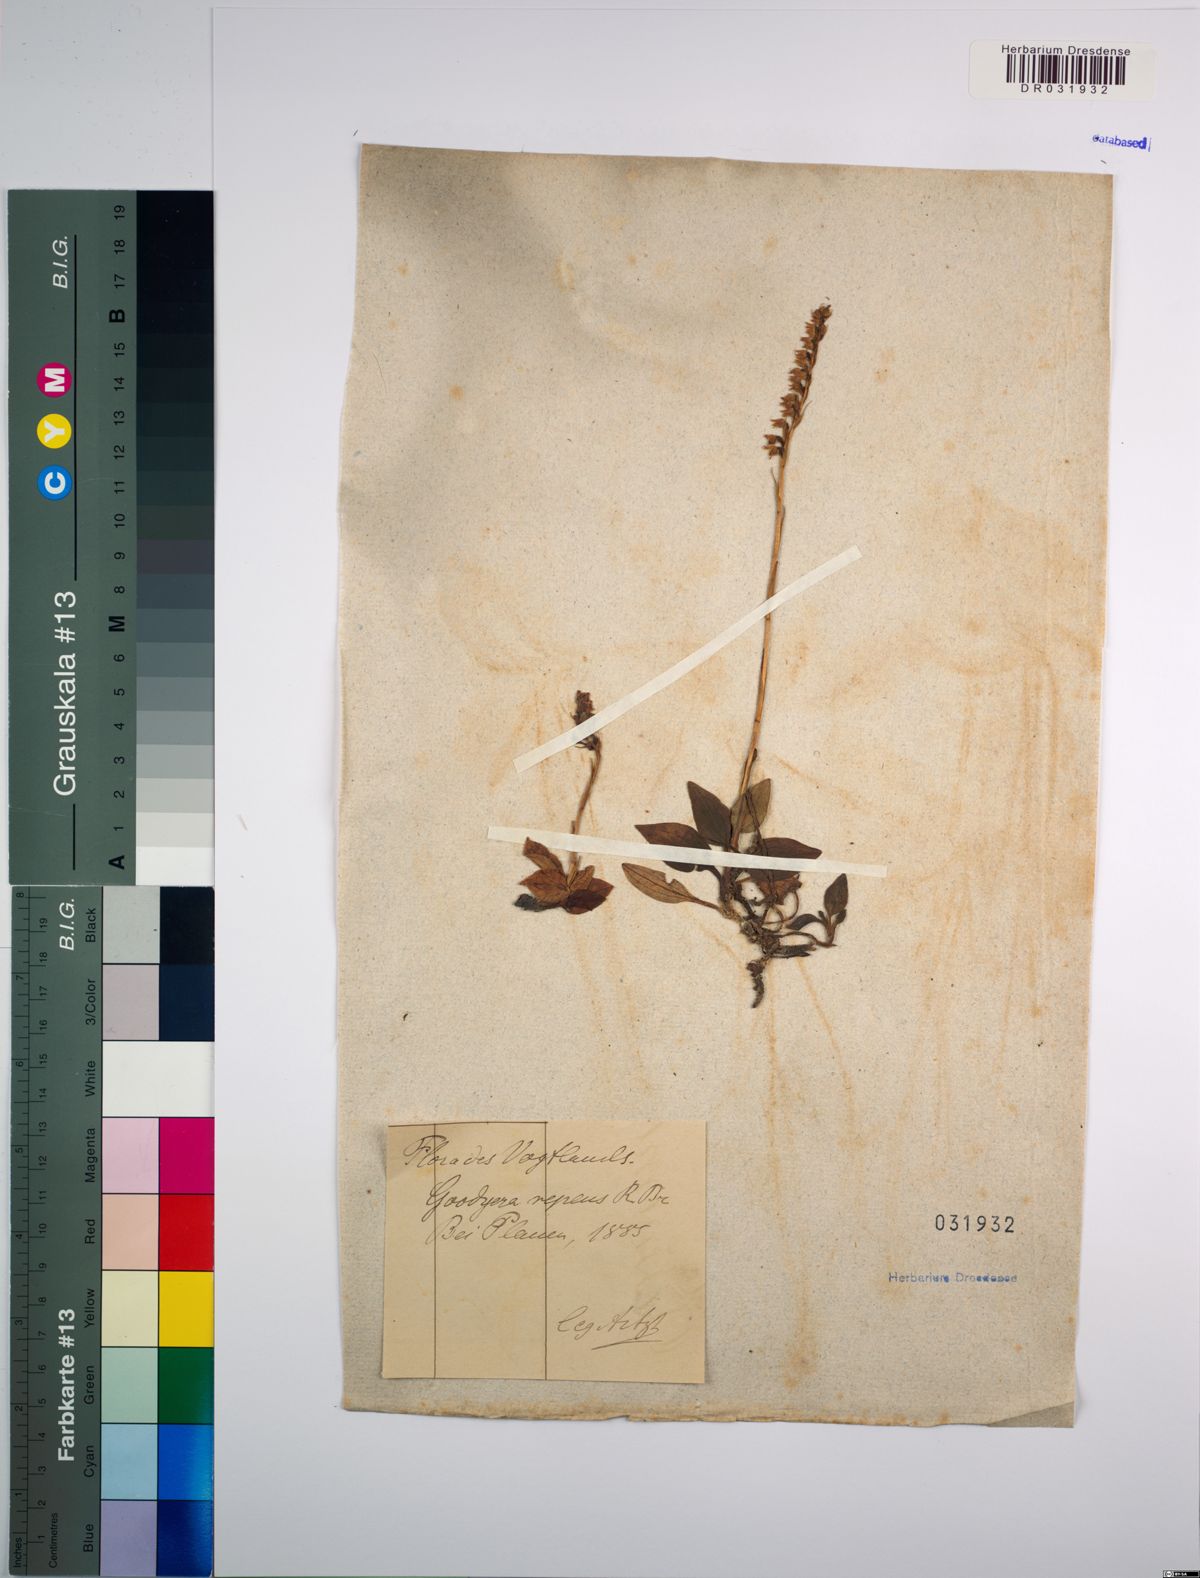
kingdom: Plantae
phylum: Tracheophyta
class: Liliopsida
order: Asparagales
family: Orchidaceae
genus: Goodyera
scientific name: Goodyera repens
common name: Creeping lady's-tresses
